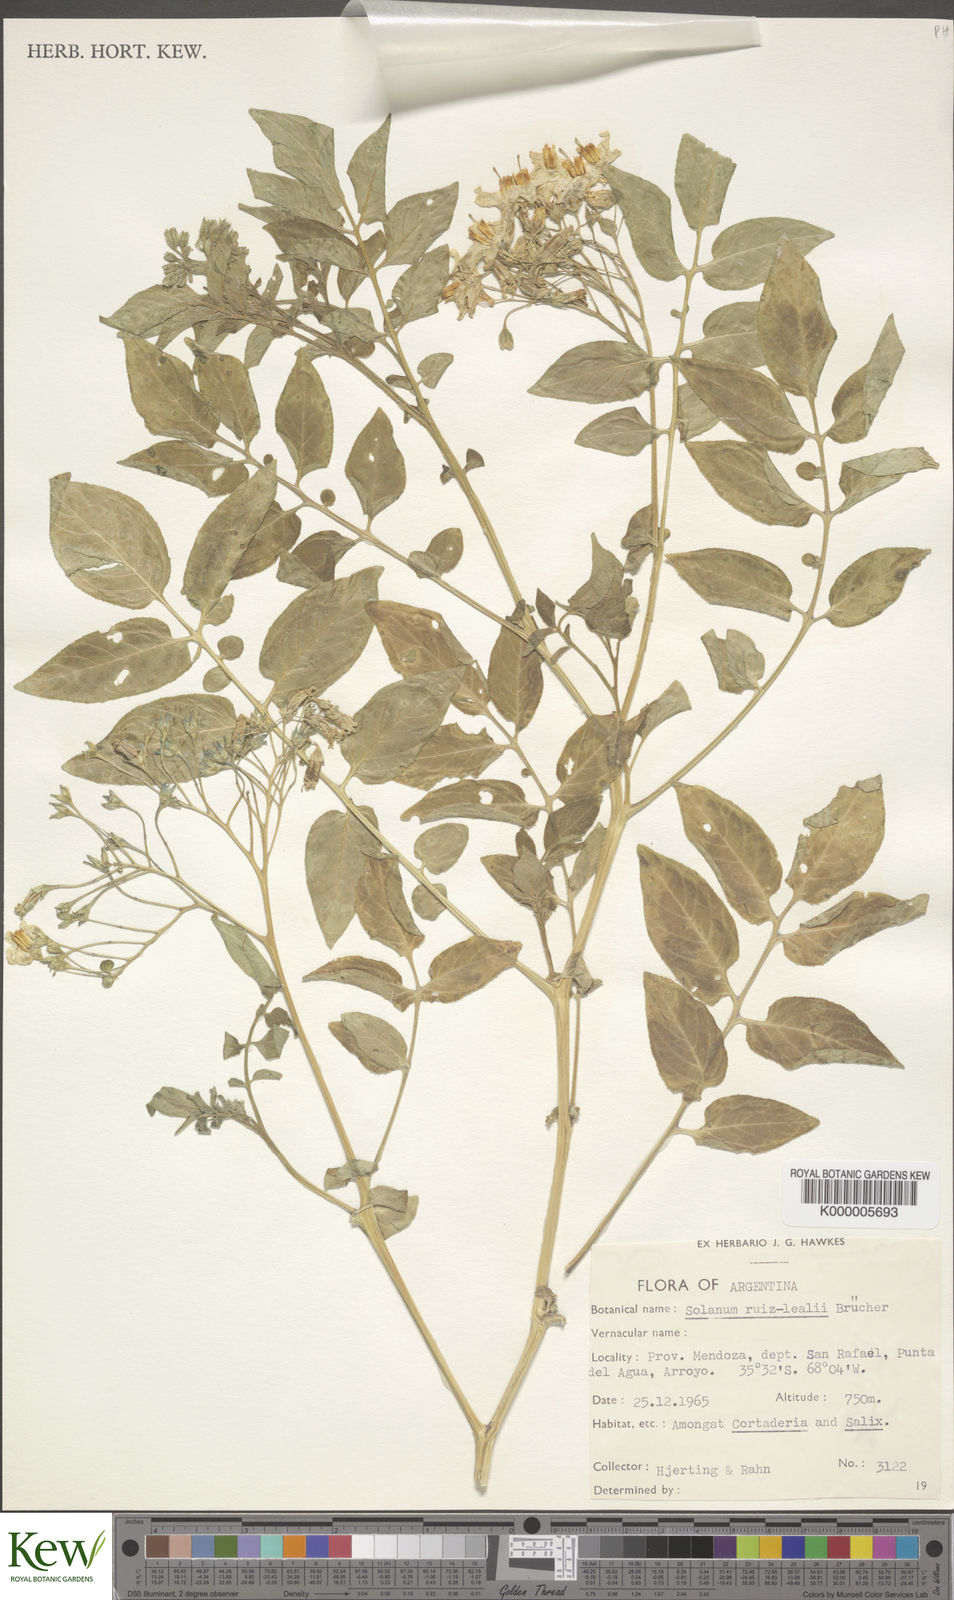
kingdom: Plantae
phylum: Tracheophyta
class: Magnoliopsida
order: Solanales
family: Solanaceae
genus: Solanum
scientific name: Solanum
